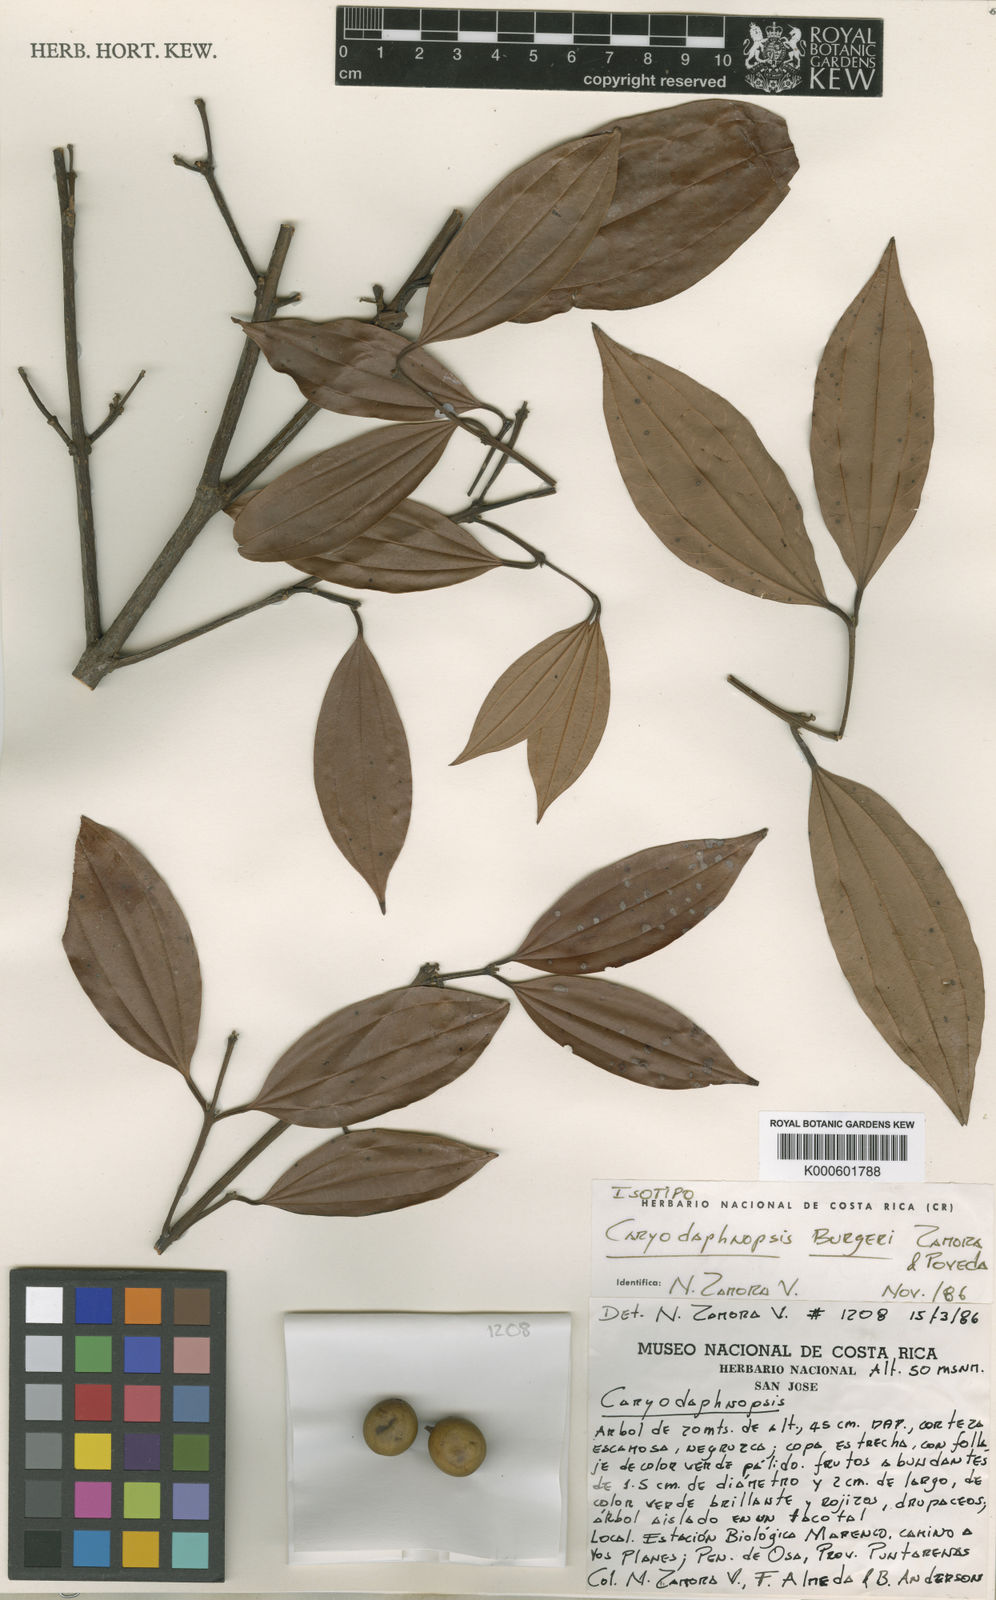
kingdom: Plantae
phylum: Tracheophyta
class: Magnoliopsida
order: Laurales
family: Lauraceae
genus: Caryodaphnopsis
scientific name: Caryodaphnopsis burgeri
